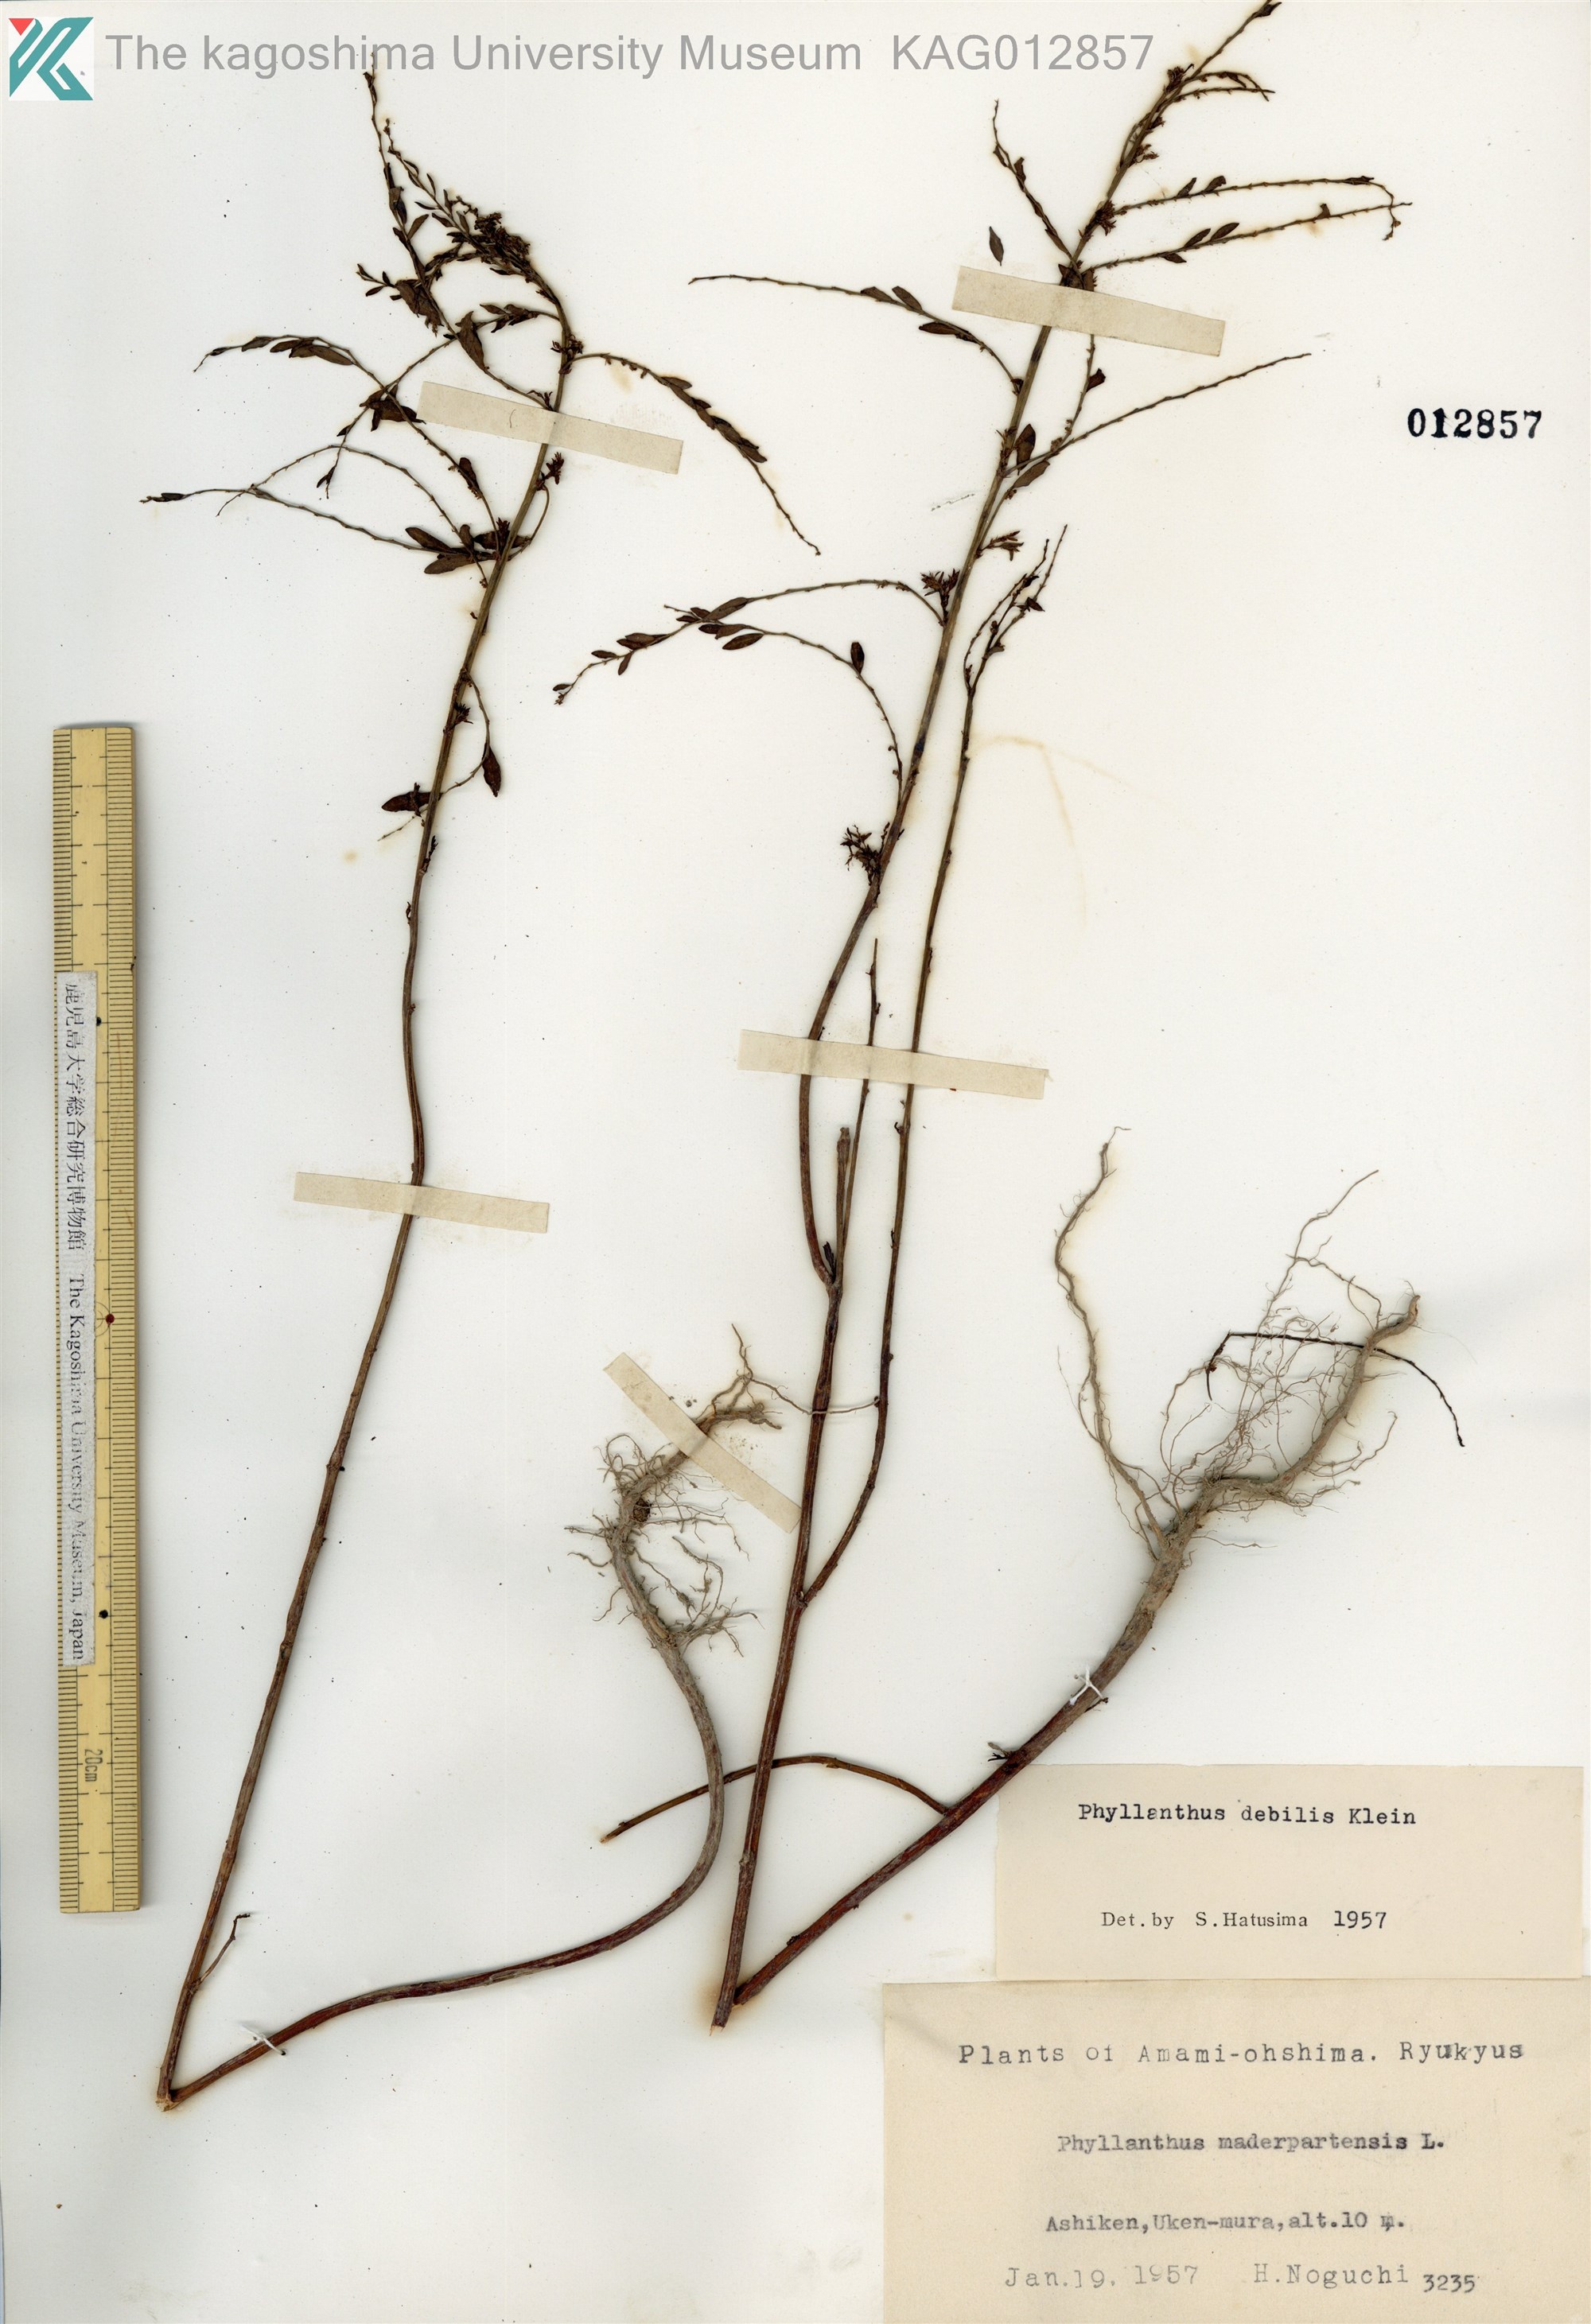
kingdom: Plantae
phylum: Tracheophyta
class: Magnoliopsida
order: Malpighiales
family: Phyllanthaceae
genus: Phyllanthus
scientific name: Phyllanthus debilis
